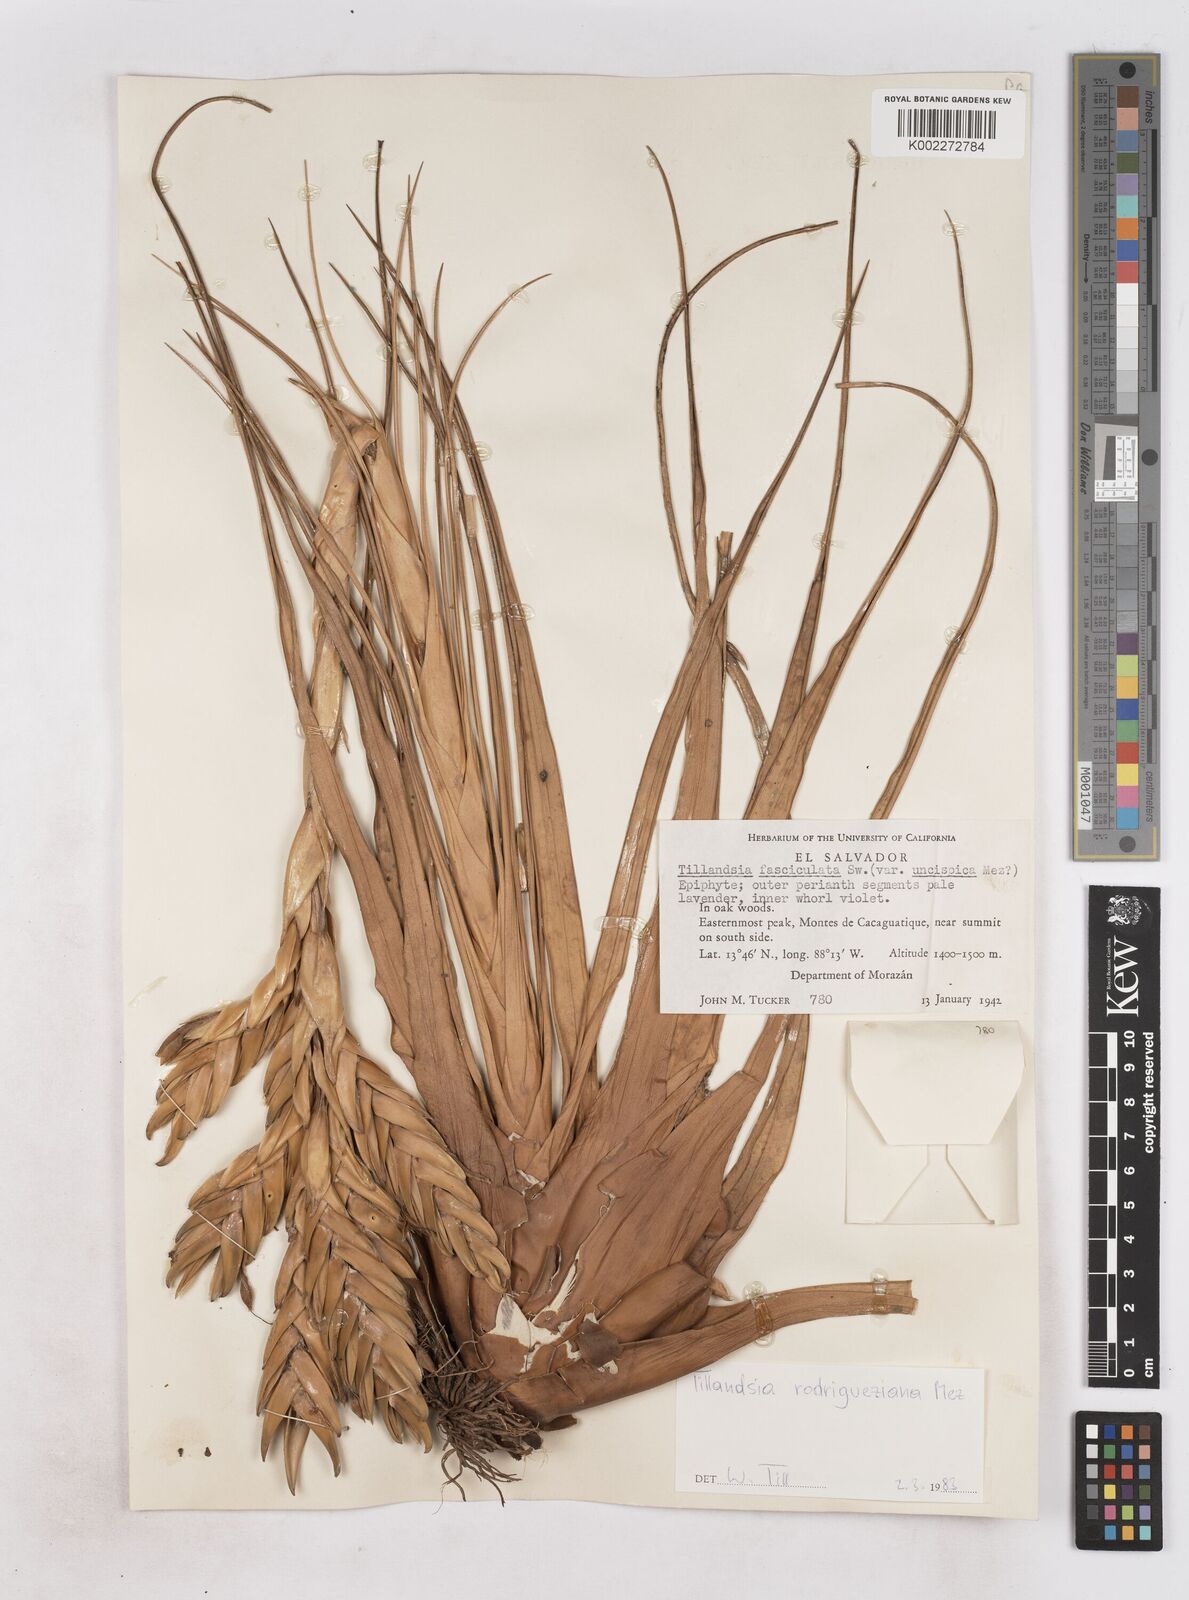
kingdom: Plantae
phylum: Tracheophyta
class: Liliopsida
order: Poales
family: Bromeliaceae
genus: Tillandsia
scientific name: Tillandsia rodrigueziana
